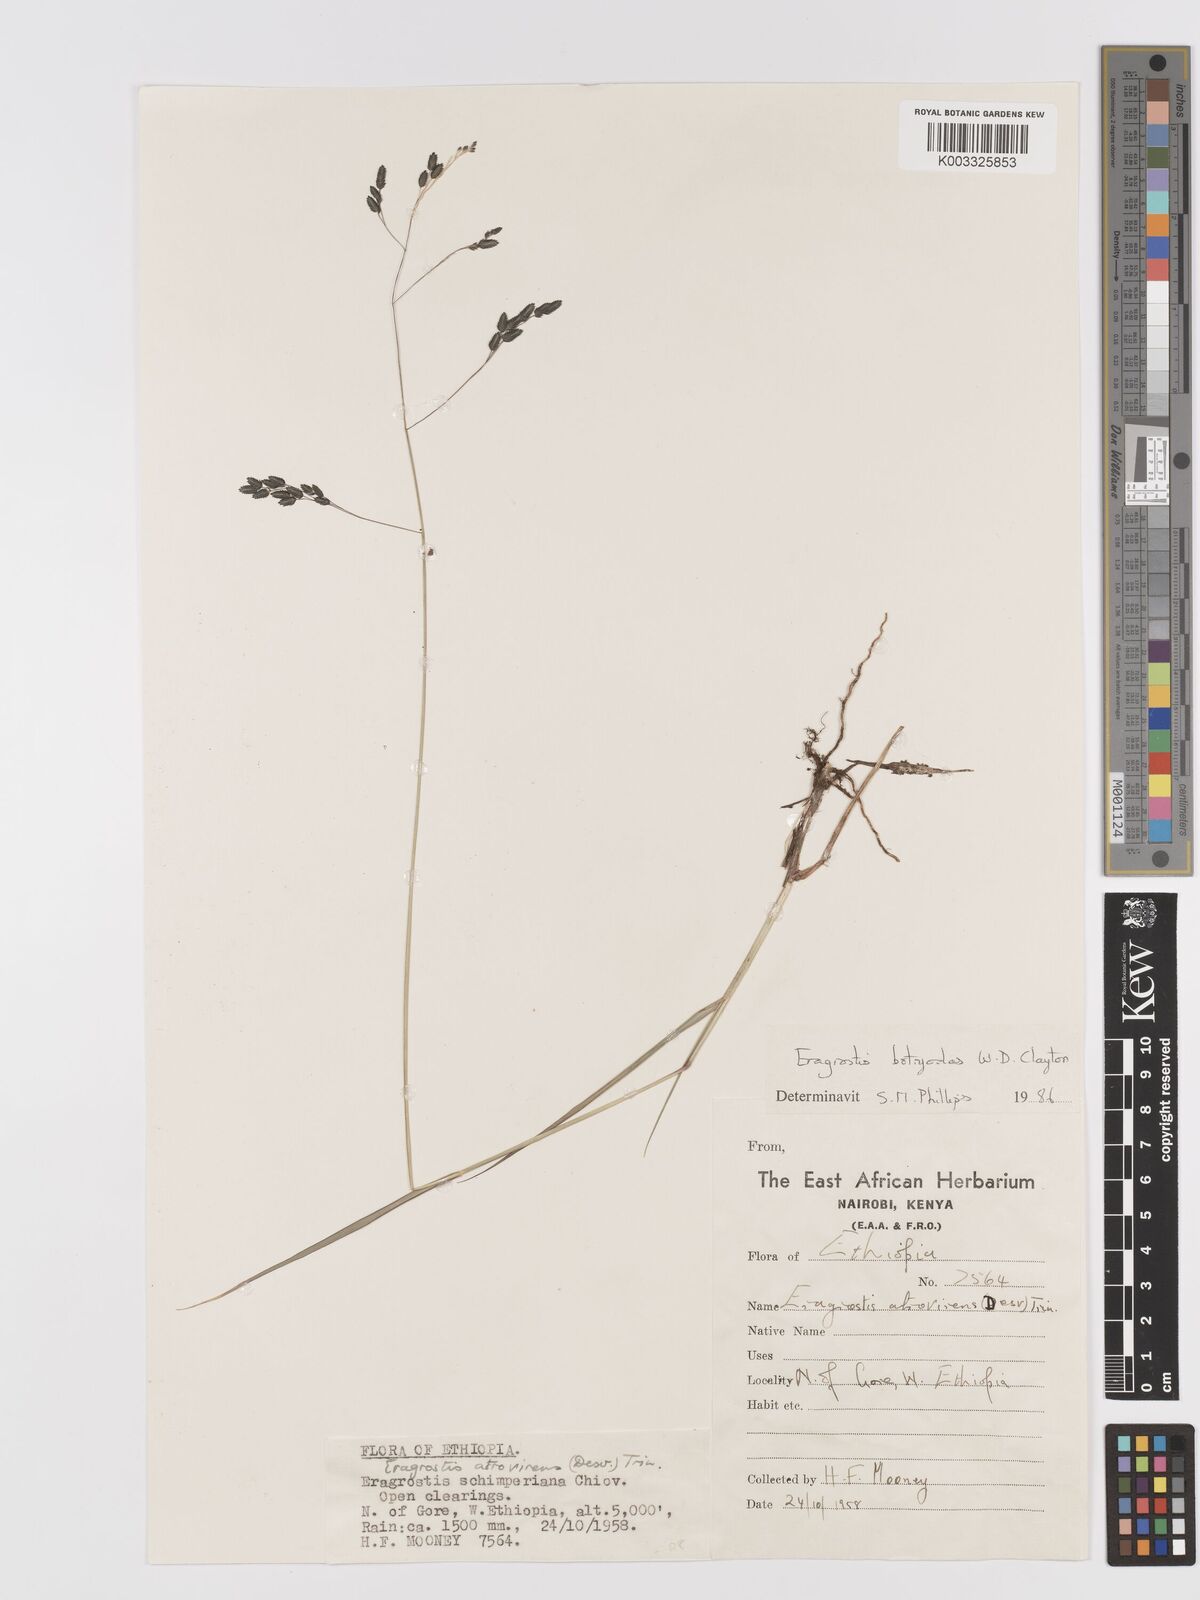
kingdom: Plantae
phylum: Tracheophyta
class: Liliopsida
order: Poales
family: Poaceae
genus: Eragrostis
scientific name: Eragrostis botryodes
